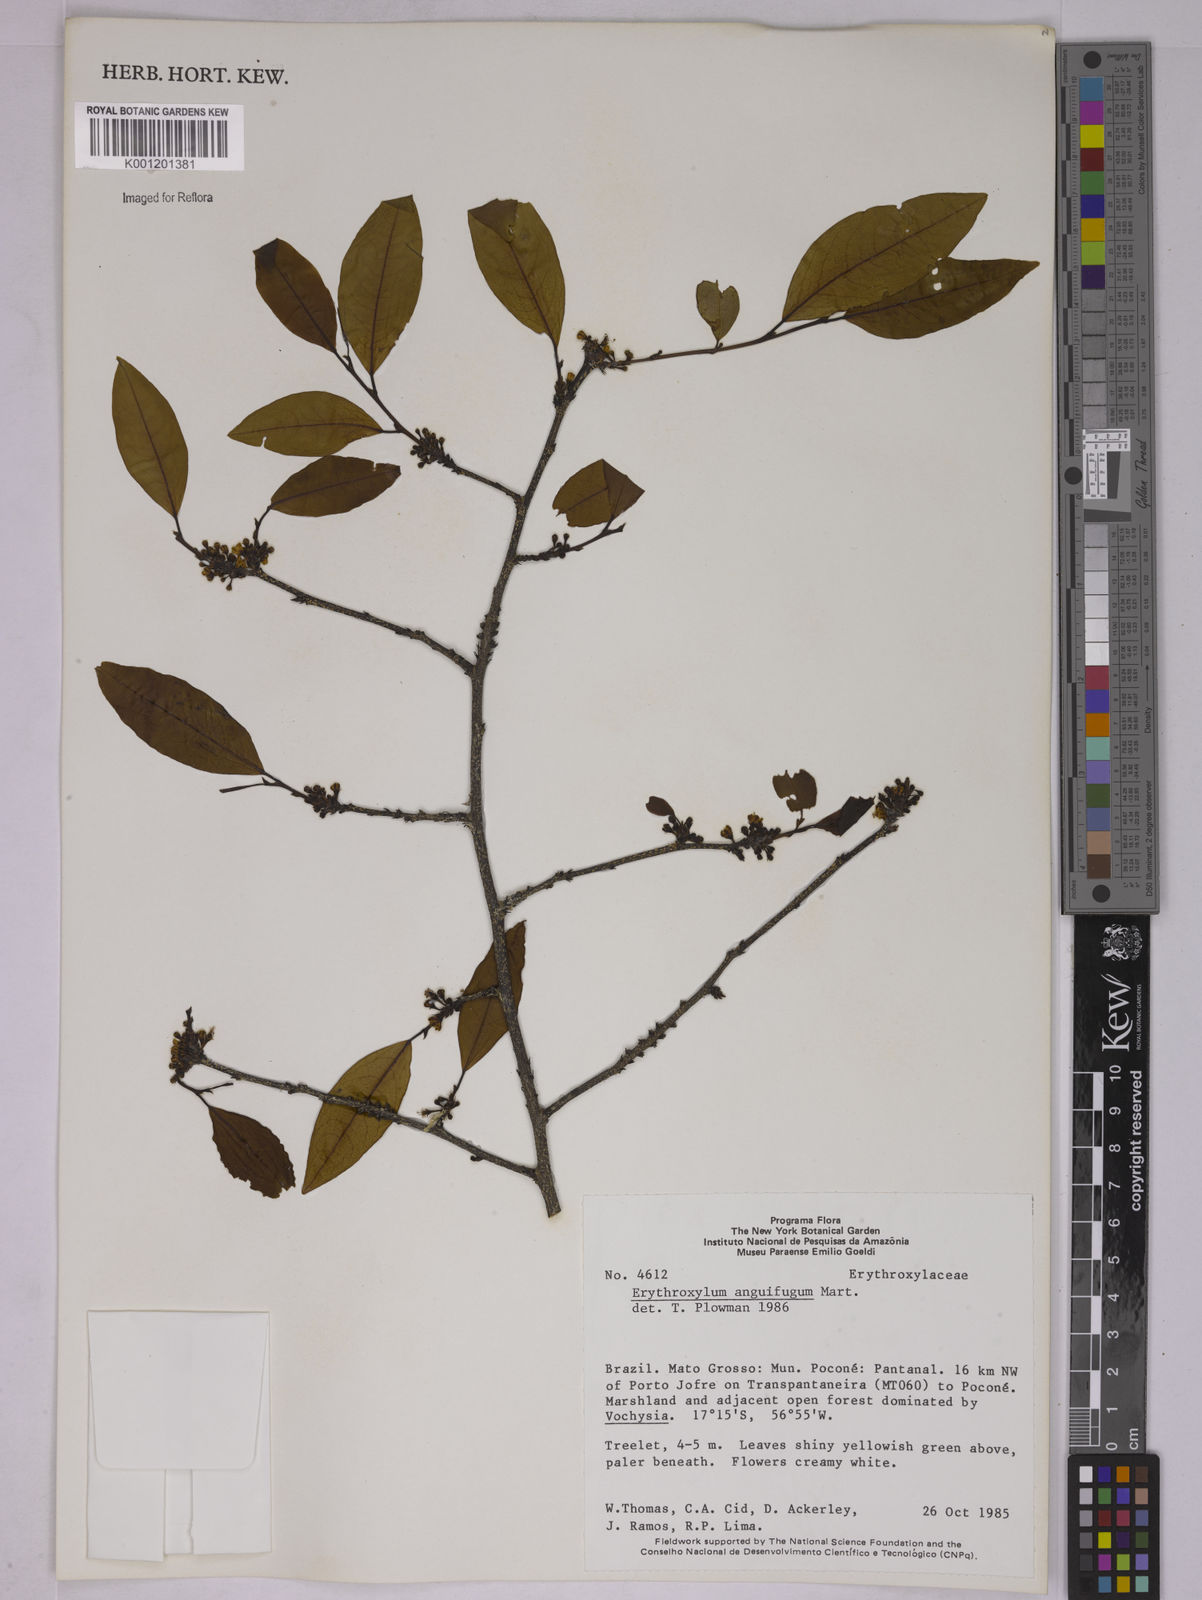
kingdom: Plantae
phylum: Tracheophyta
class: Magnoliopsida
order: Malpighiales
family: Erythroxylaceae
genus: Erythroxylum
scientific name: Erythroxylum anguifugum
